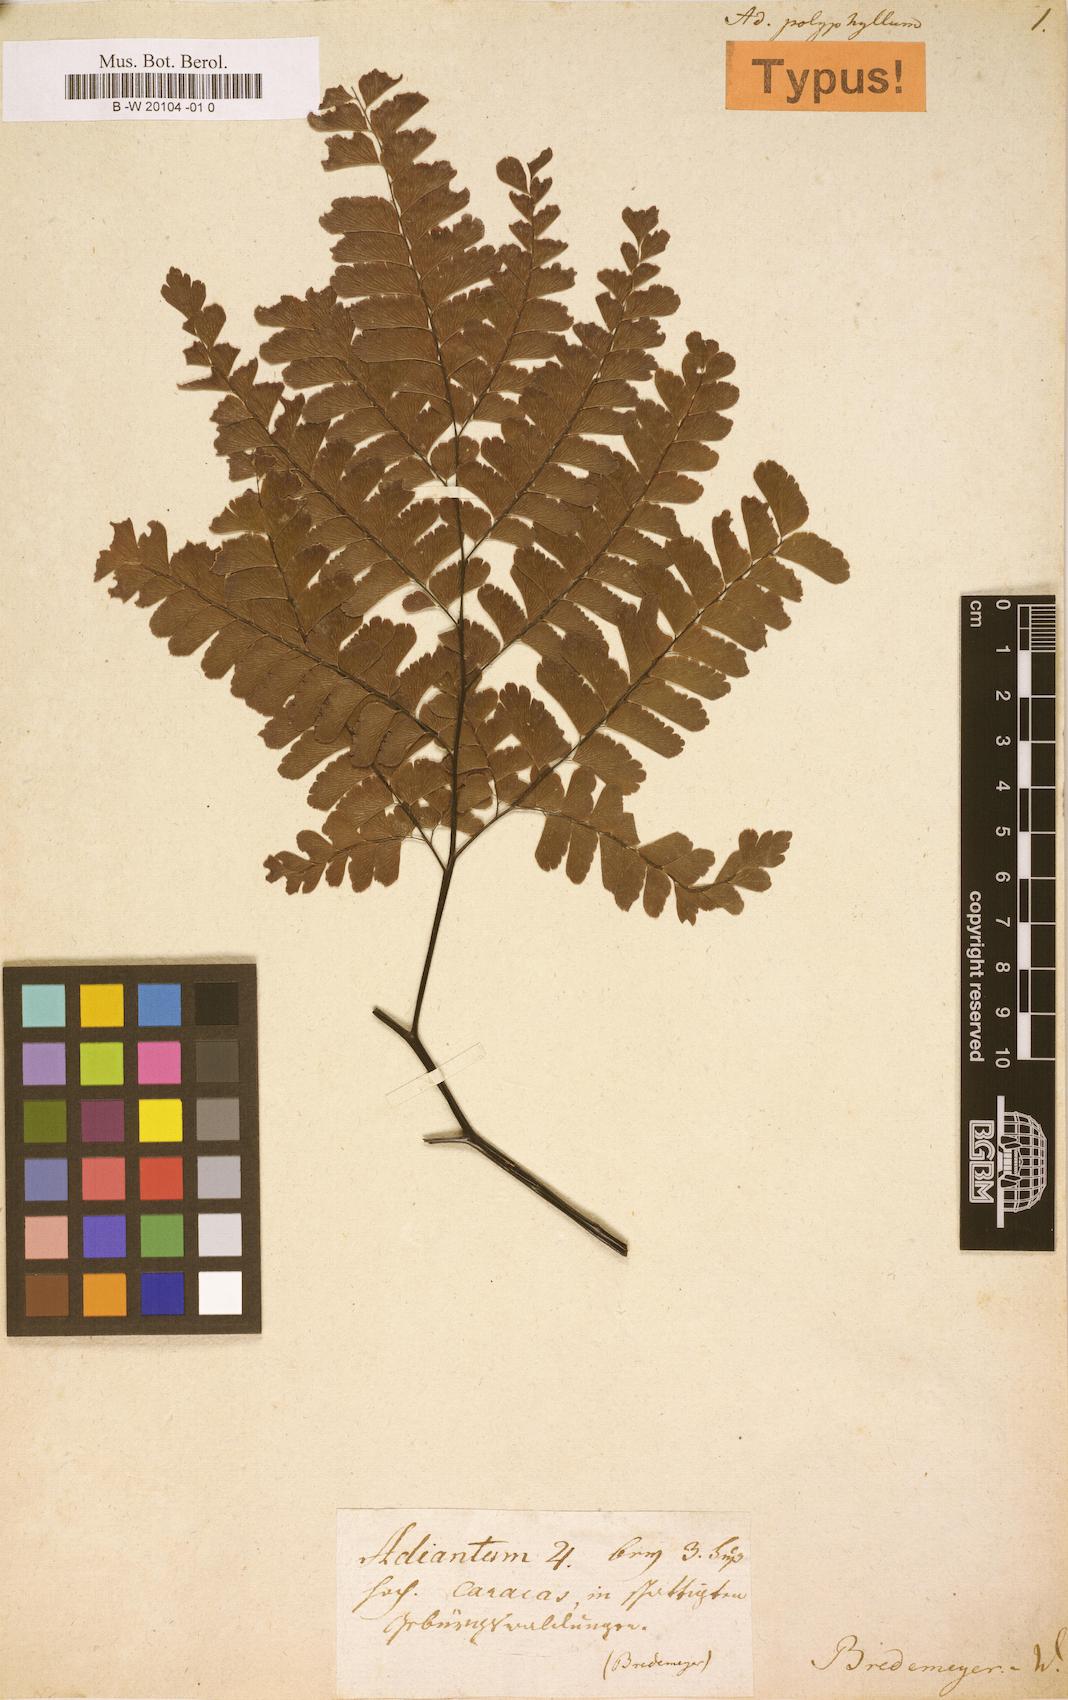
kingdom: Plantae
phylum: Tracheophyta
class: Polypodiopsida
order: Polypodiales
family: Pteridaceae
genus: Adiantum
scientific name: Adiantum polyphyllum
